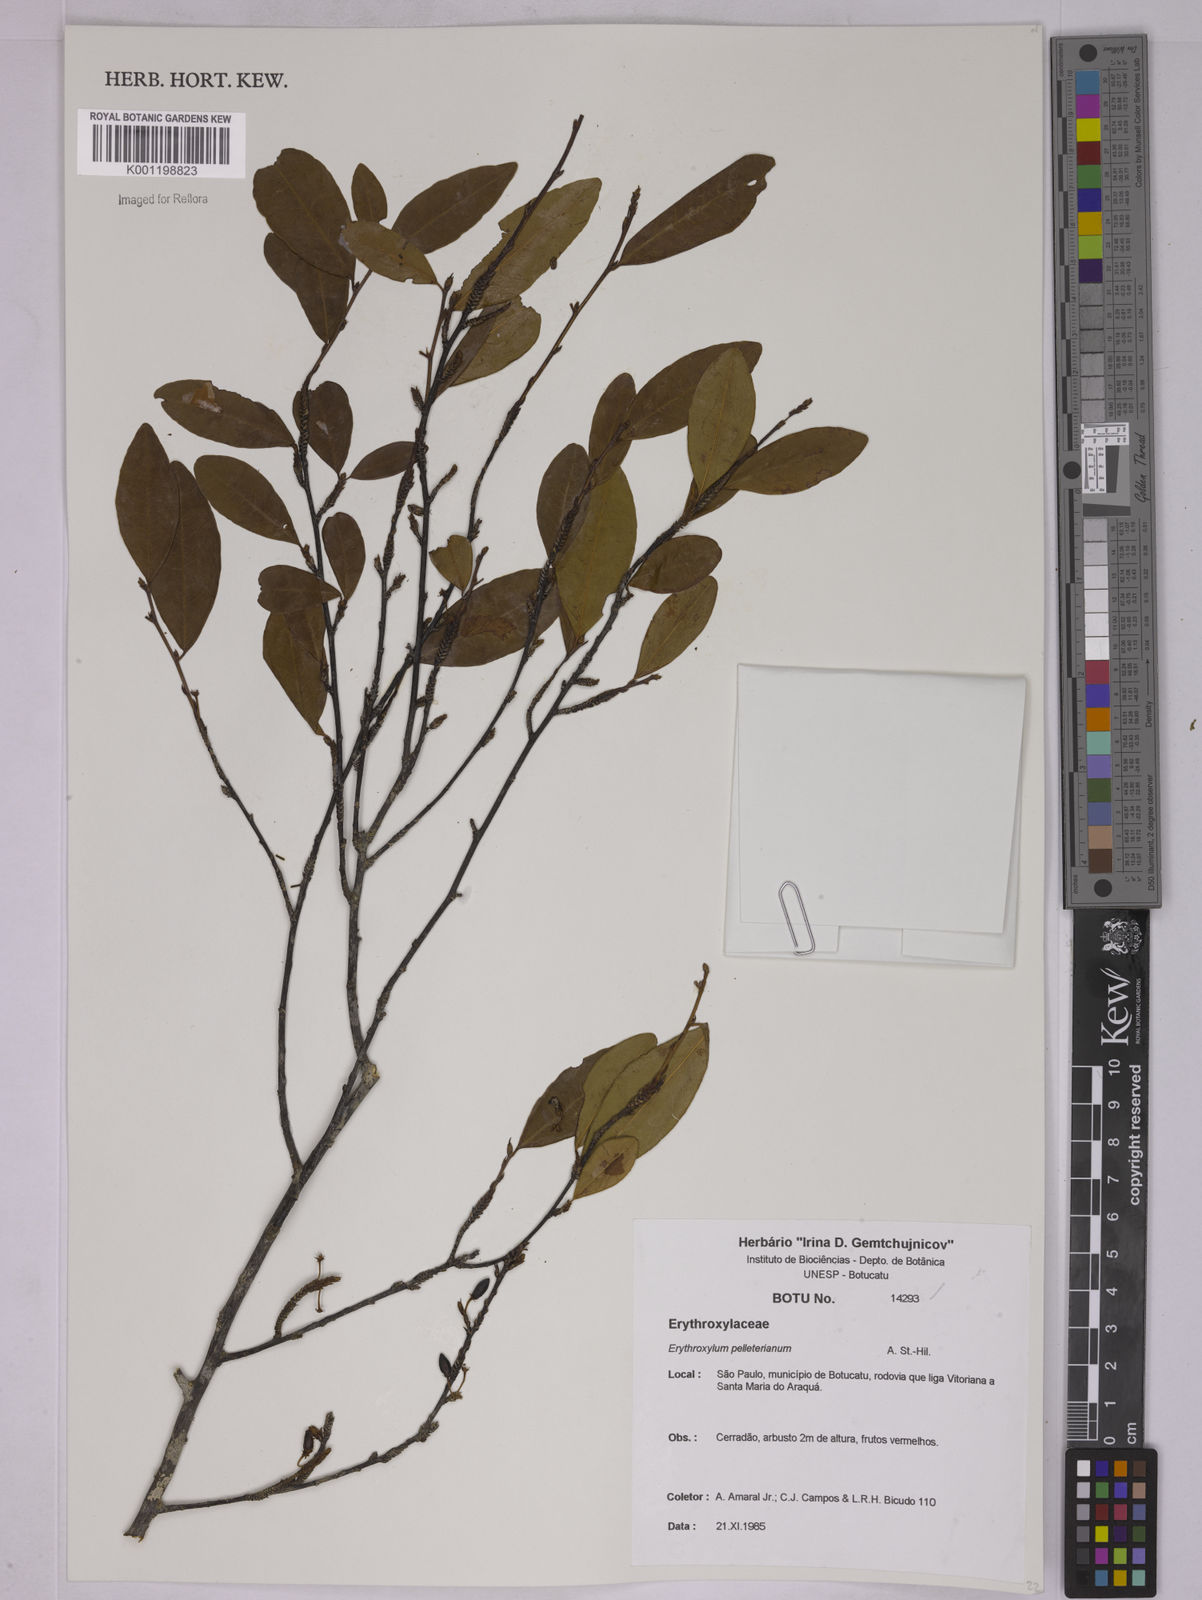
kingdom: Plantae
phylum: Tracheophyta
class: Magnoliopsida
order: Malpighiales
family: Erythroxylaceae
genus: Erythroxylum
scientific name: Erythroxylum pelleterianum
